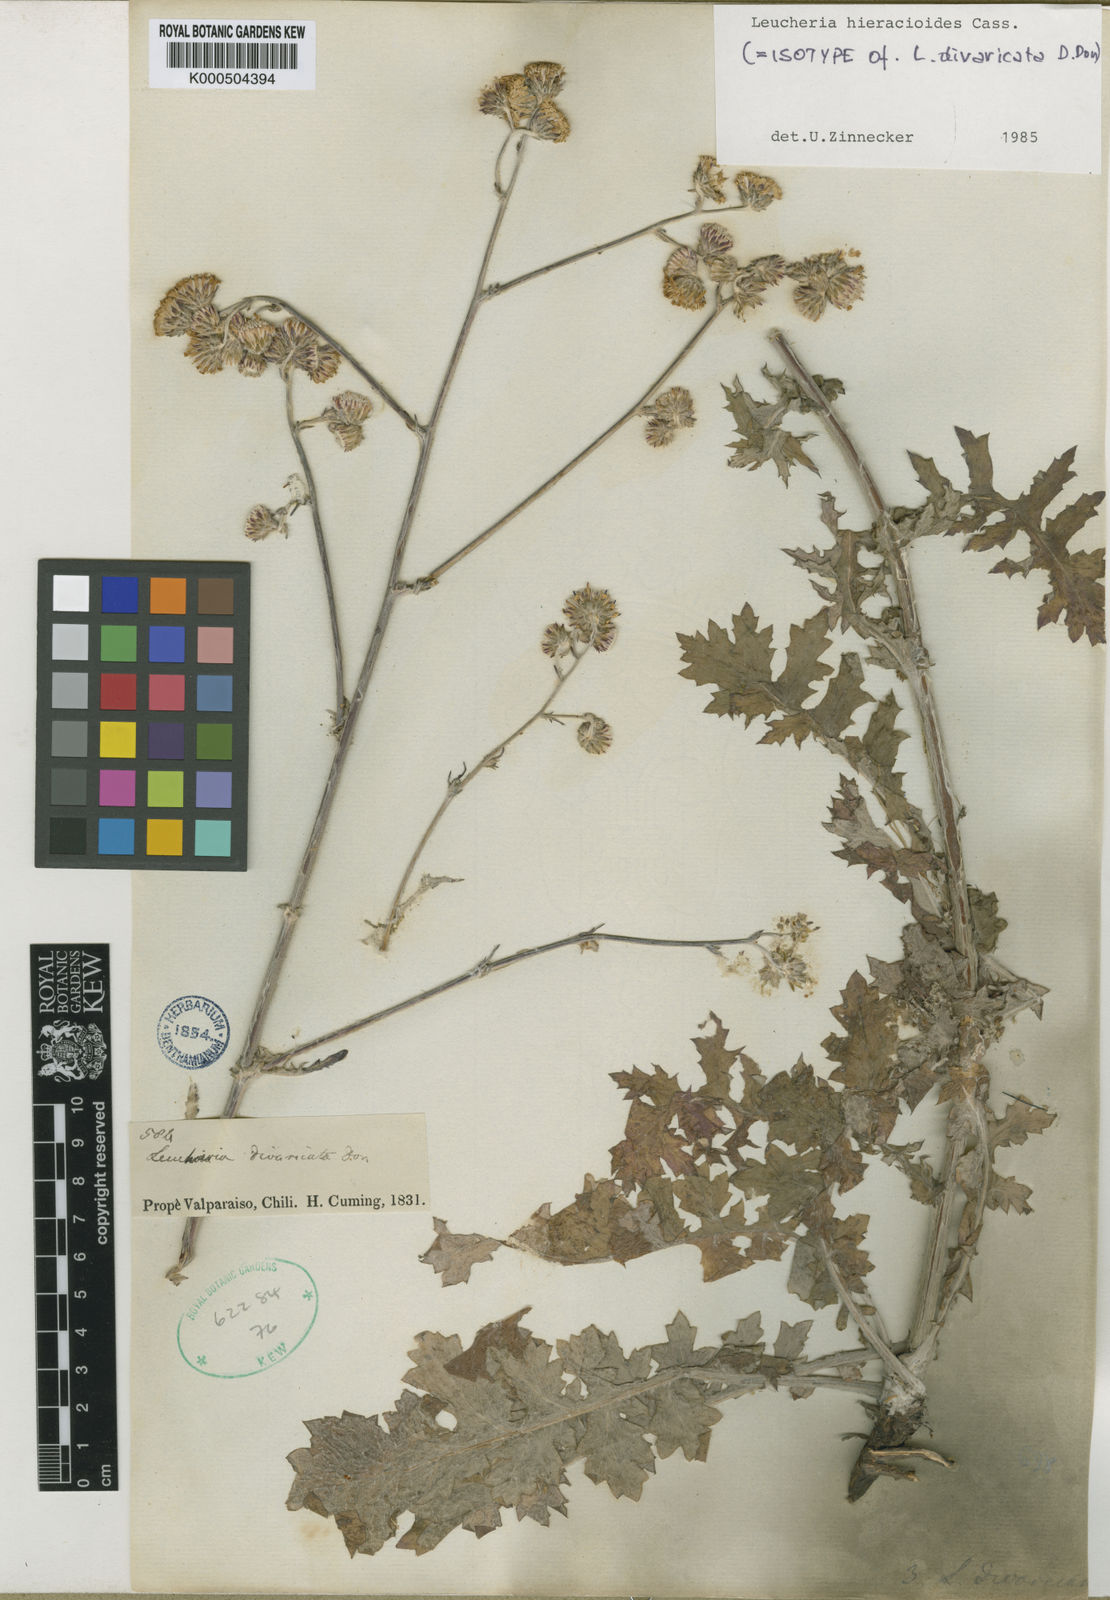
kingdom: Plantae
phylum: Tracheophyta
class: Magnoliopsida
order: Asterales
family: Asteraceae
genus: Leucheria
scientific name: Leucheria hieracioides
